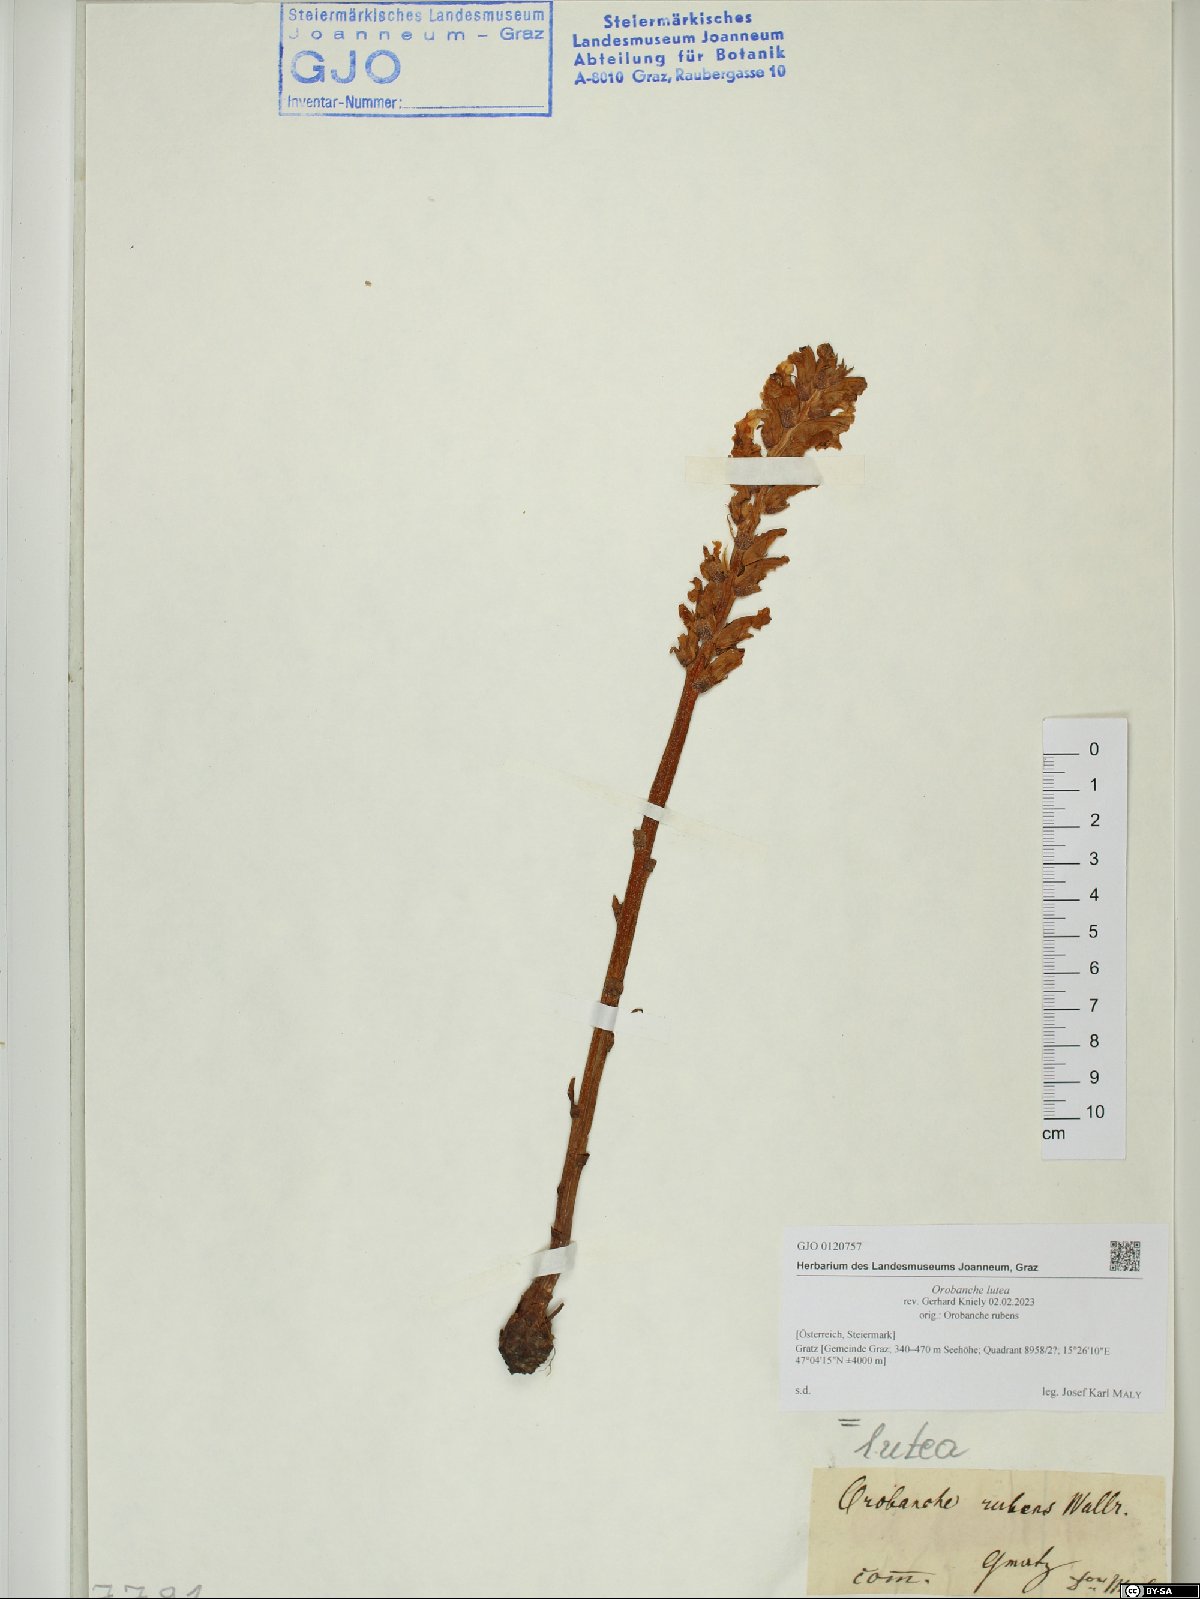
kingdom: Plantae
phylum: Tracheophyta
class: Magnoliopsida
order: Lamiales
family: Orobanchaceae
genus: Orobanche
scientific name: Orobanche lutea
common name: Yellow broomrape
